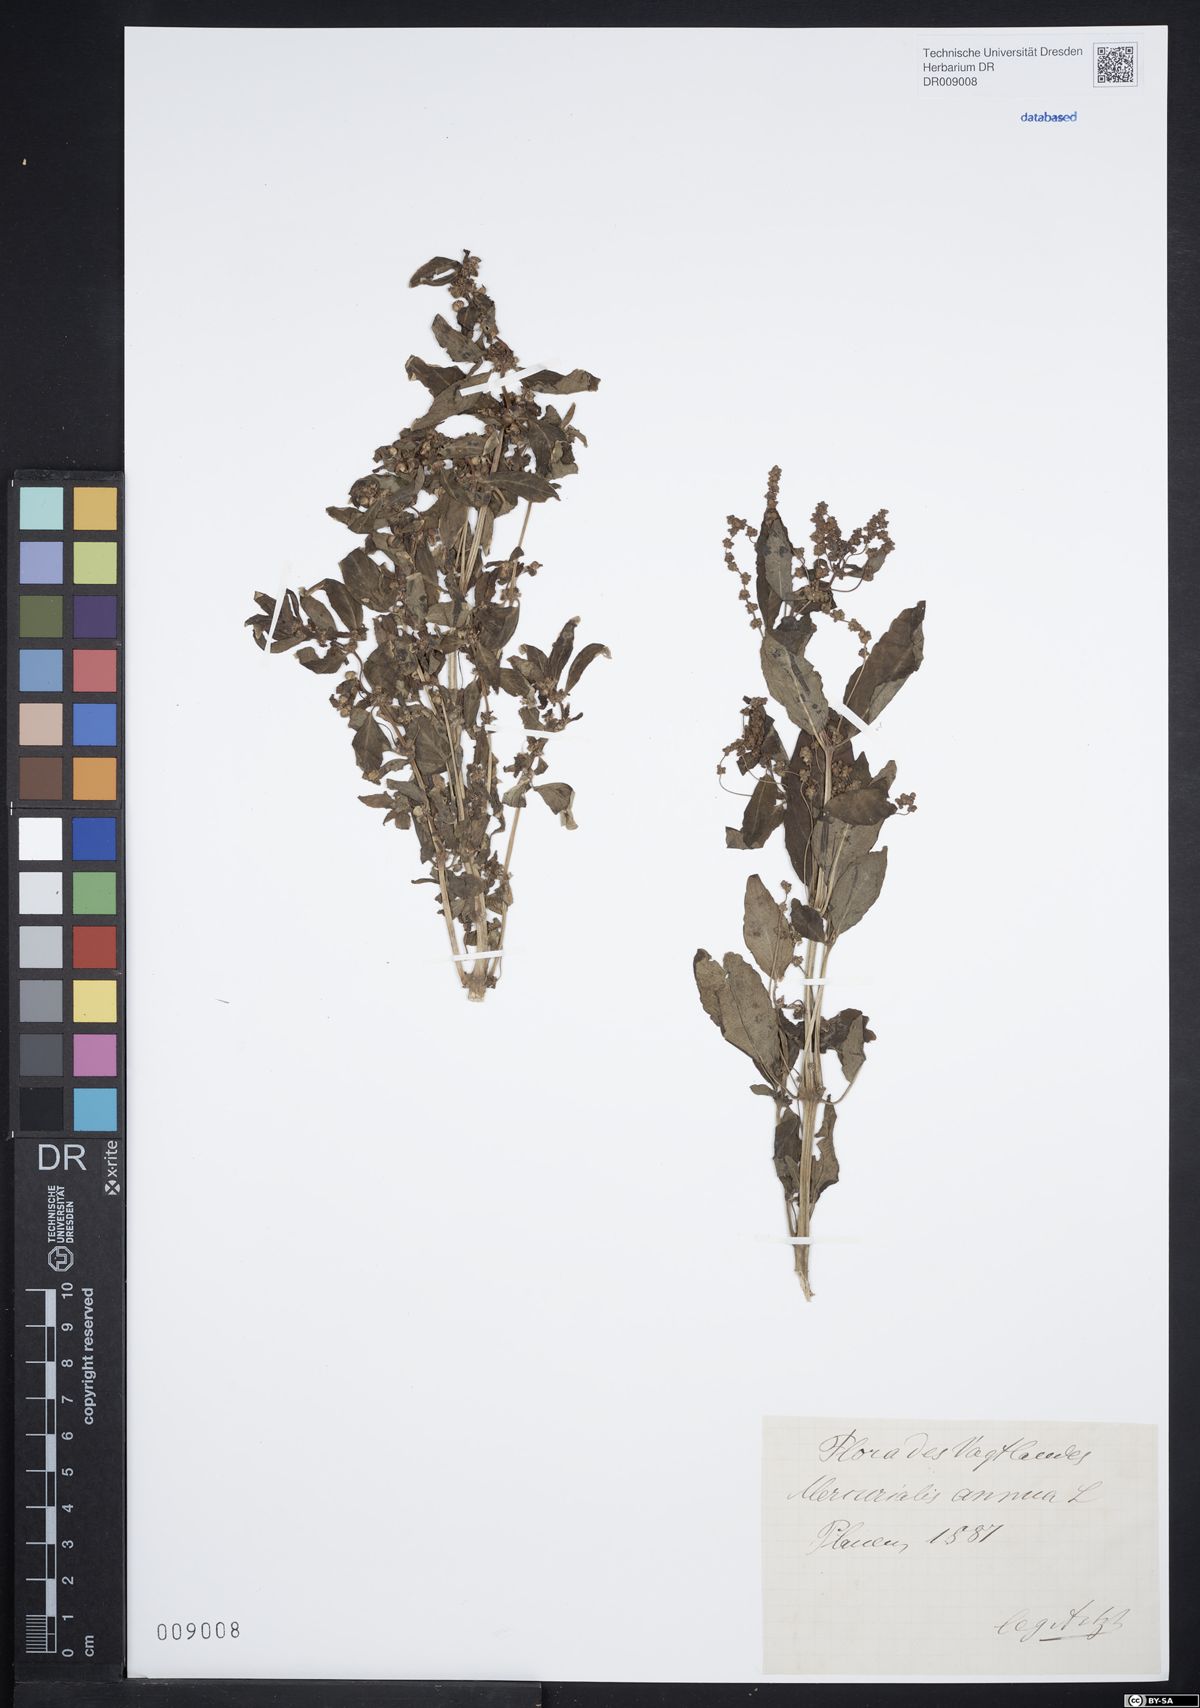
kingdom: Plantae
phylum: Tracheophyta
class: Magnoliopsida
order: Malpighiales
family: Euphorbiaceae
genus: Mercurialis
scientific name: Mercurialis annua
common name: Annual mercury
